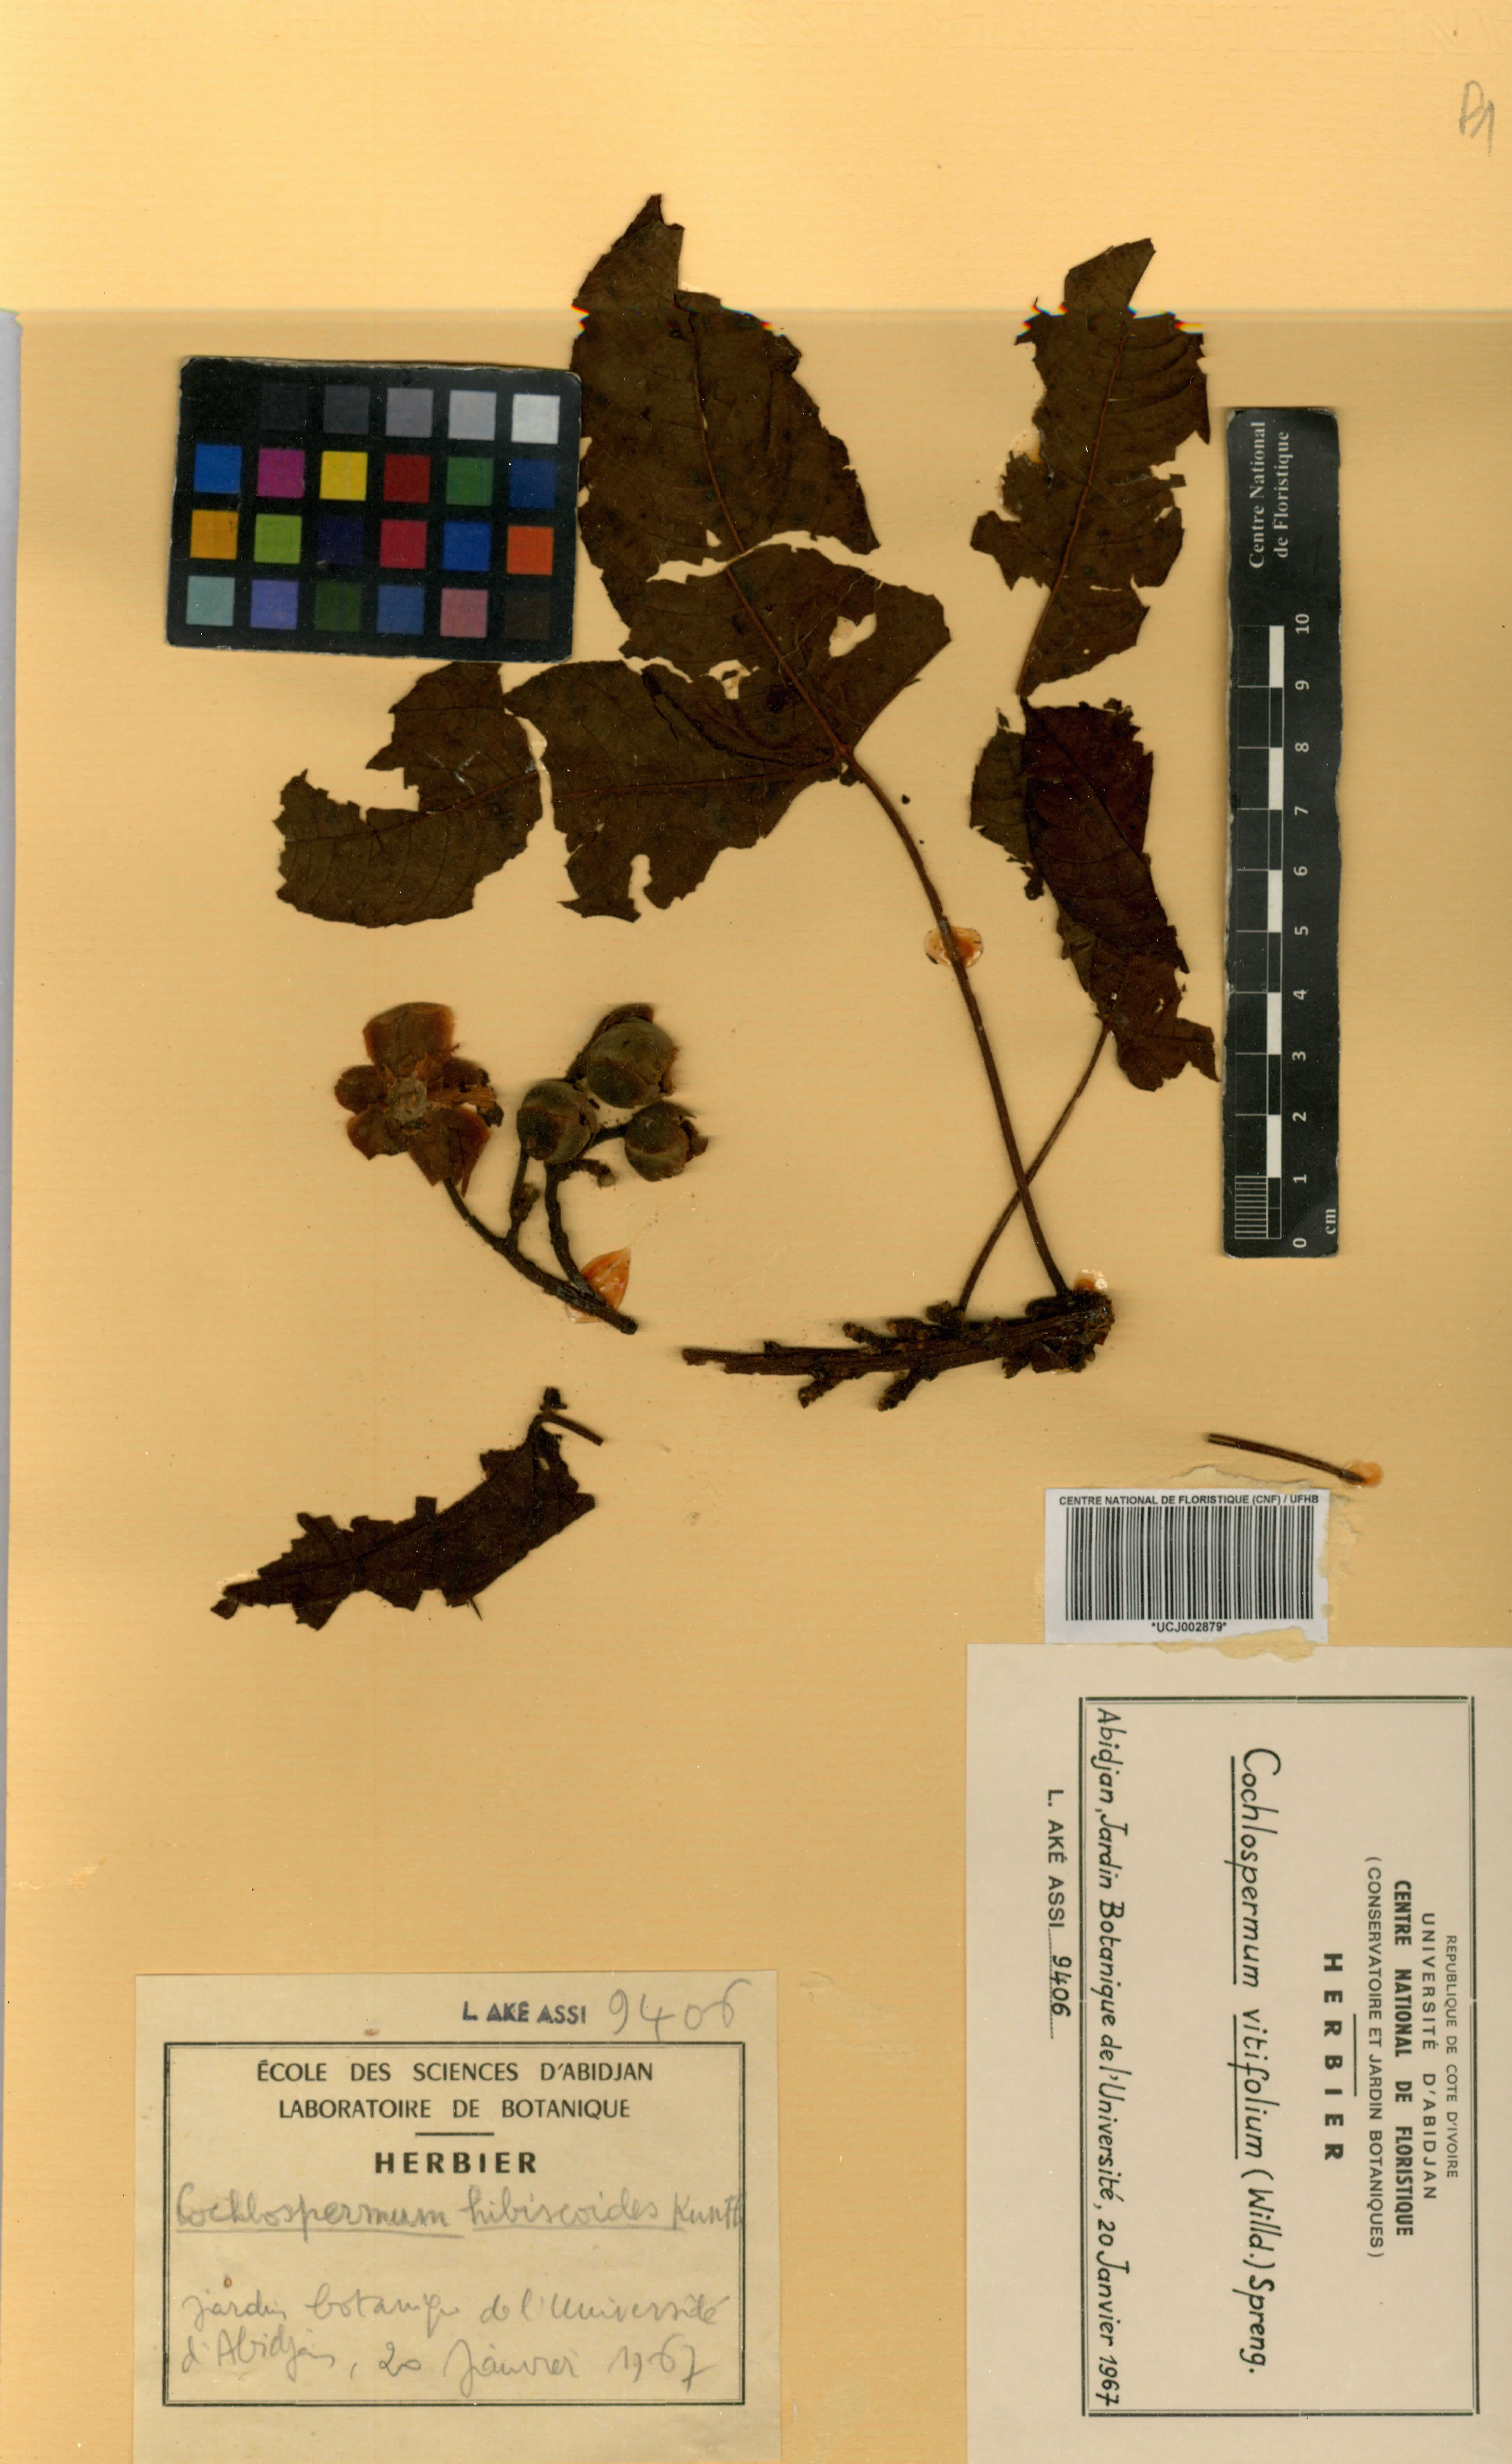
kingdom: Plantae
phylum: Tracheophyta
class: Magnoliopsida
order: Malvales
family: Cochlospermaceae
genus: Cochlospermum
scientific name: Cochlospermum tinctorium
